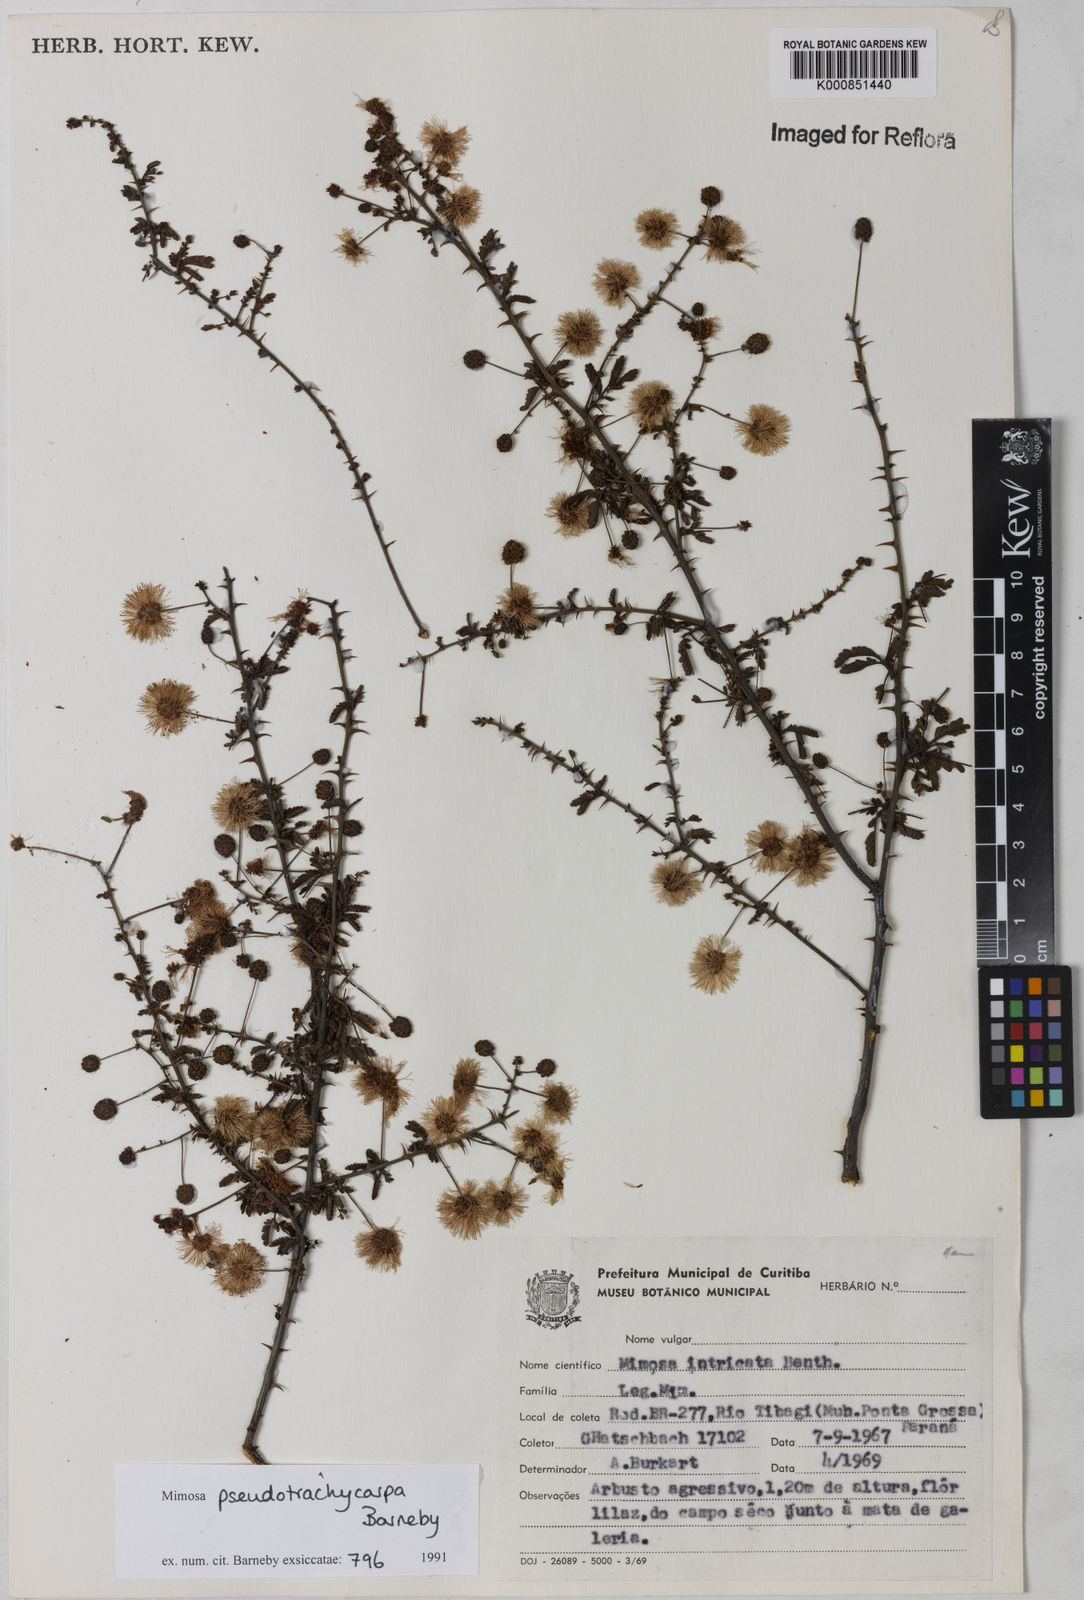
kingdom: Plantae
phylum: Tracheophyta
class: Magnoliopsida
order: Fabales
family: Fabaceae
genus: Mimosa
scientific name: Mimosa pseudotrachycarpa
